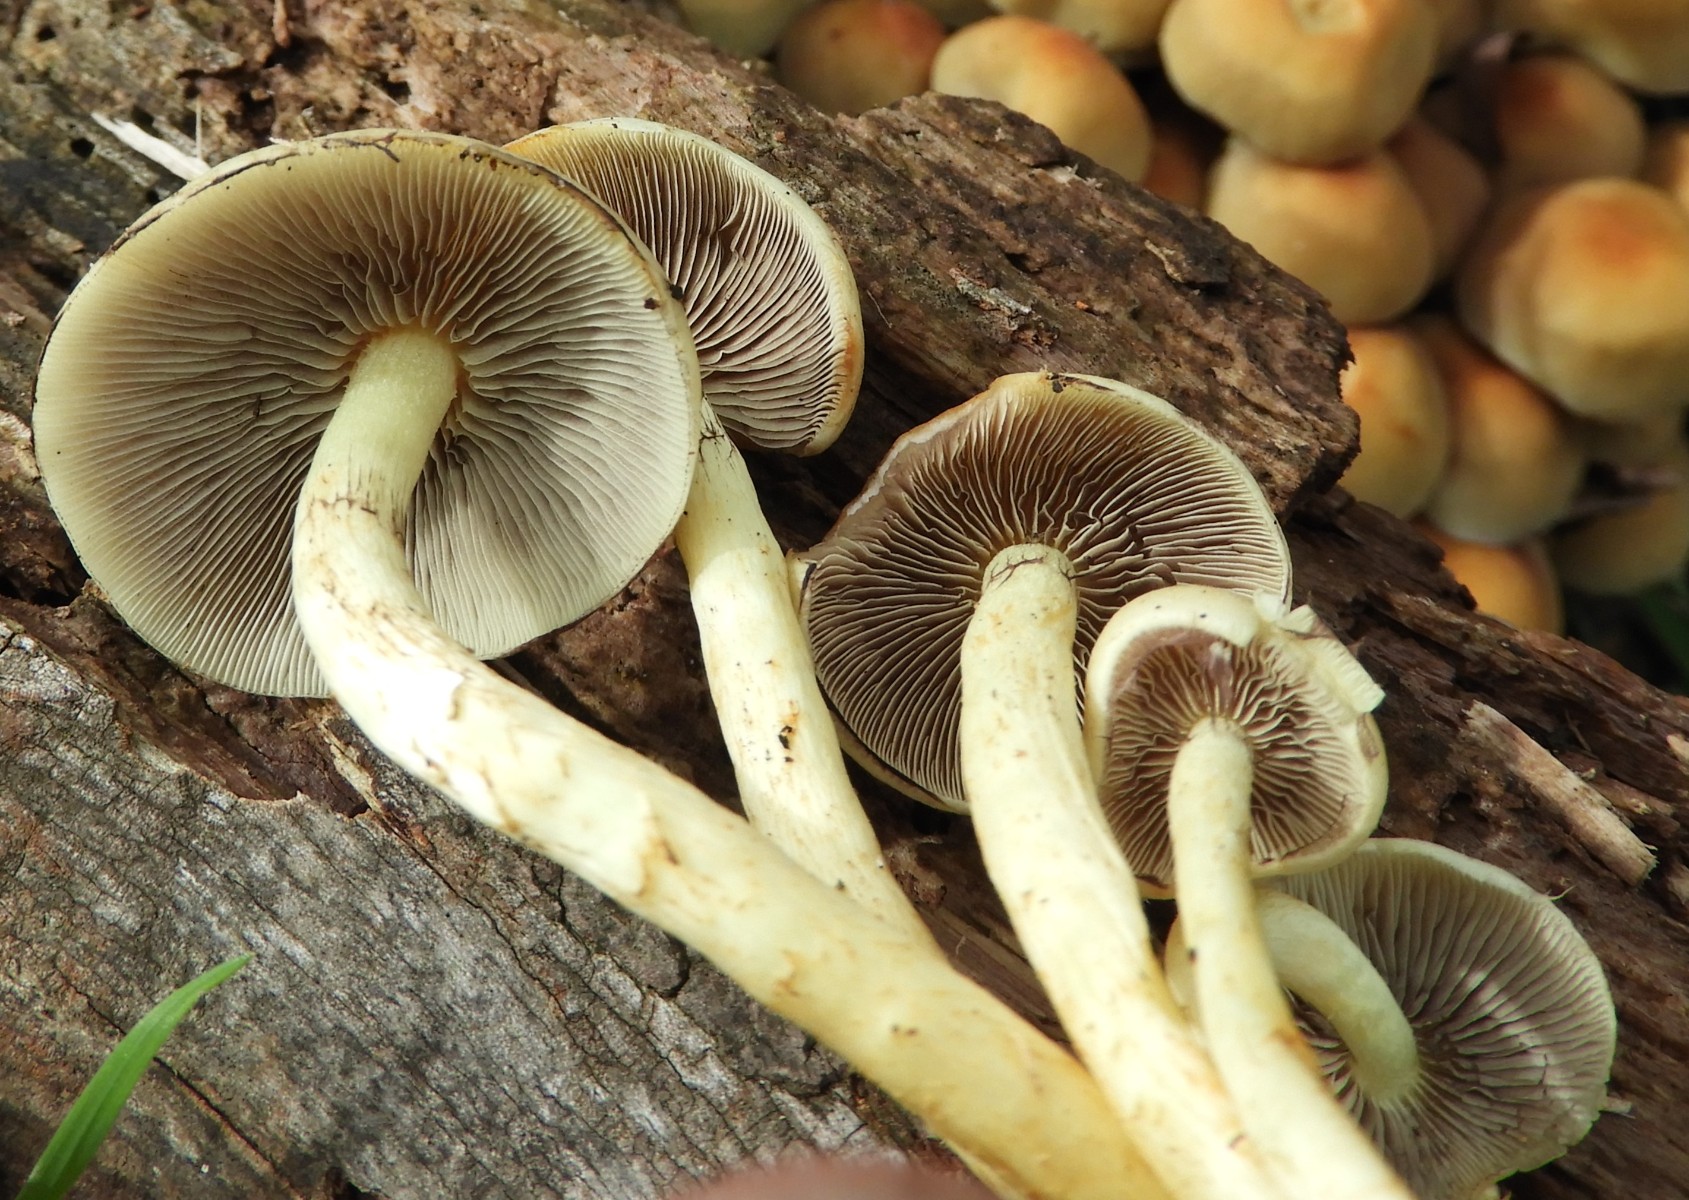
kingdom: Fungi
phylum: Basidiomycota
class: Agaricomycetes
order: Agaricales
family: Strophariaceae
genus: Hypholoma
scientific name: Hypholoma fasciculare
